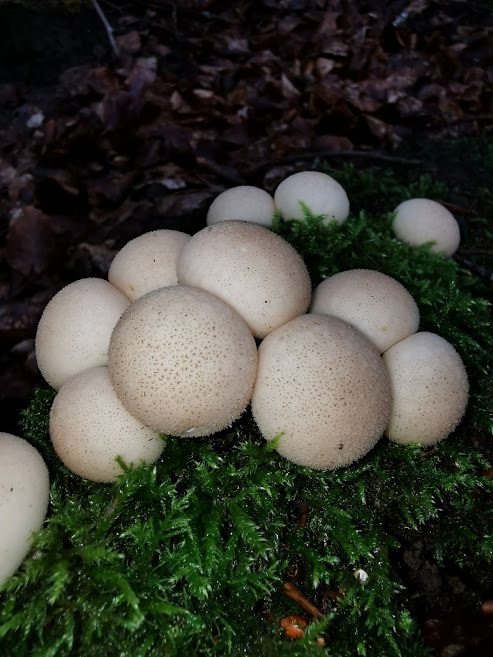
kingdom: Fungi
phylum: Basidiomycota
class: Agaricomycetes
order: Agaricales
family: Lycoperdaceae
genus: Apioperdon
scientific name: Apioperdon pyriforme
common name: pære-støvbold
